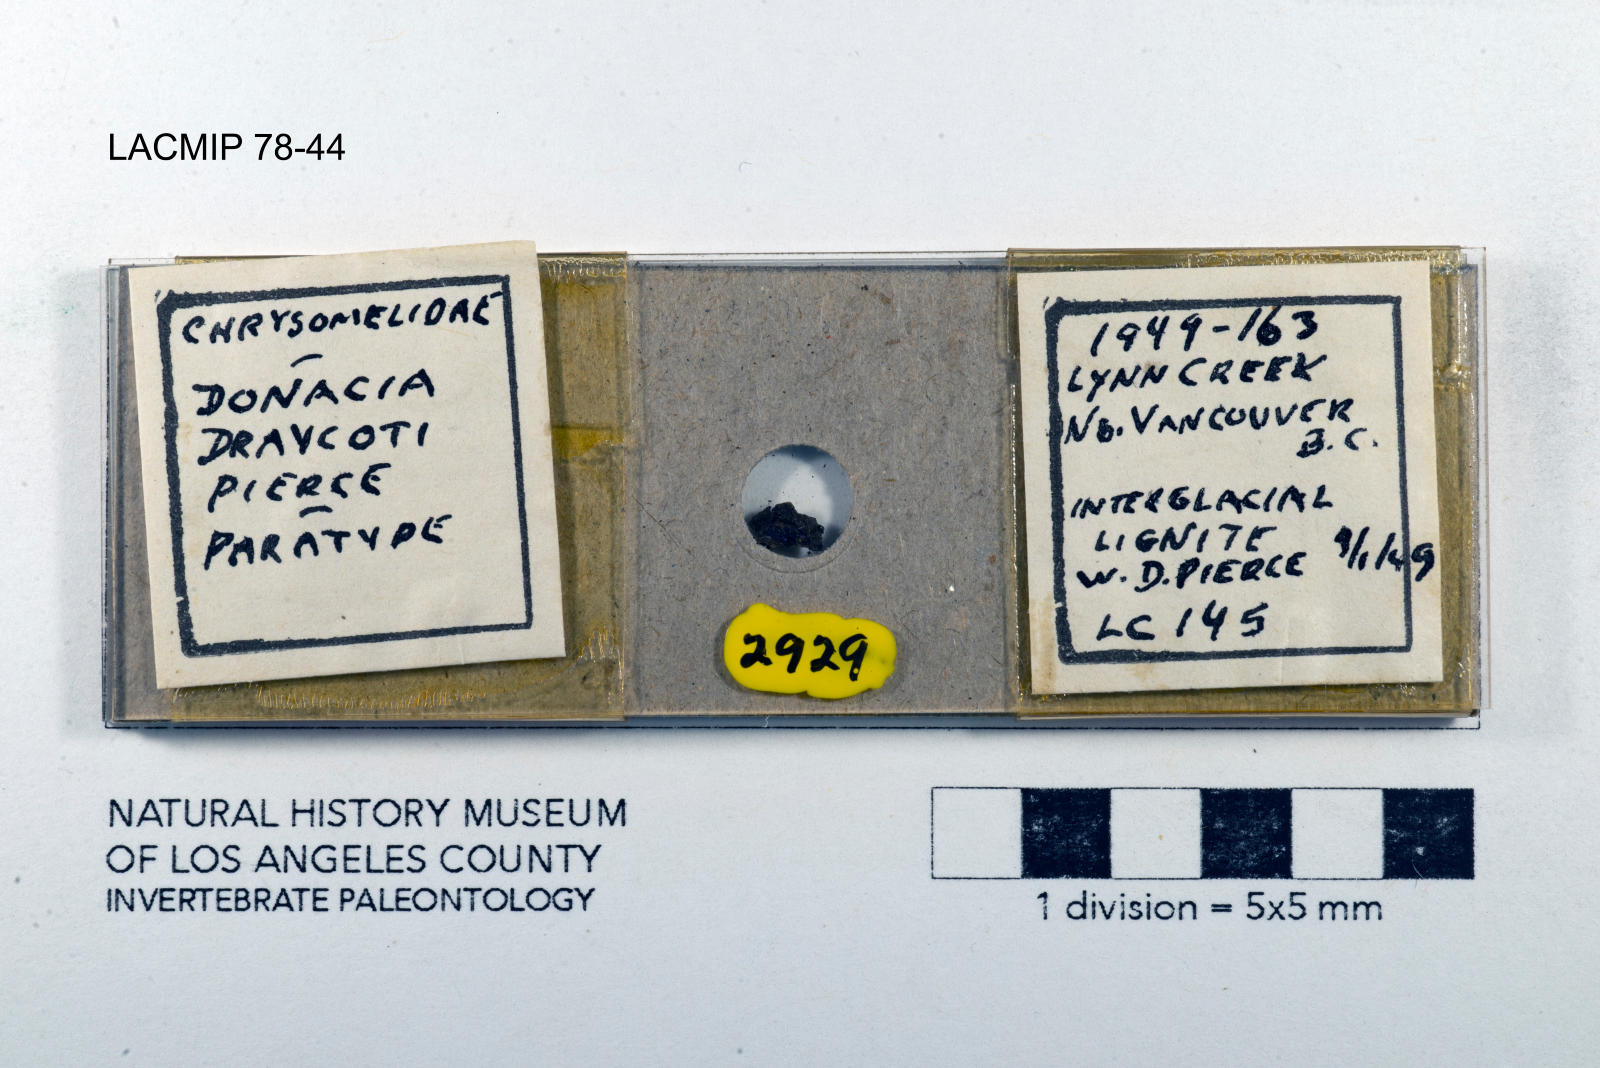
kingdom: Animalia
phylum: Arthropoda
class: Insecta
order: Coleoptera
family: Chrysomelidae
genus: Donacia
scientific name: Donacia draycoti
